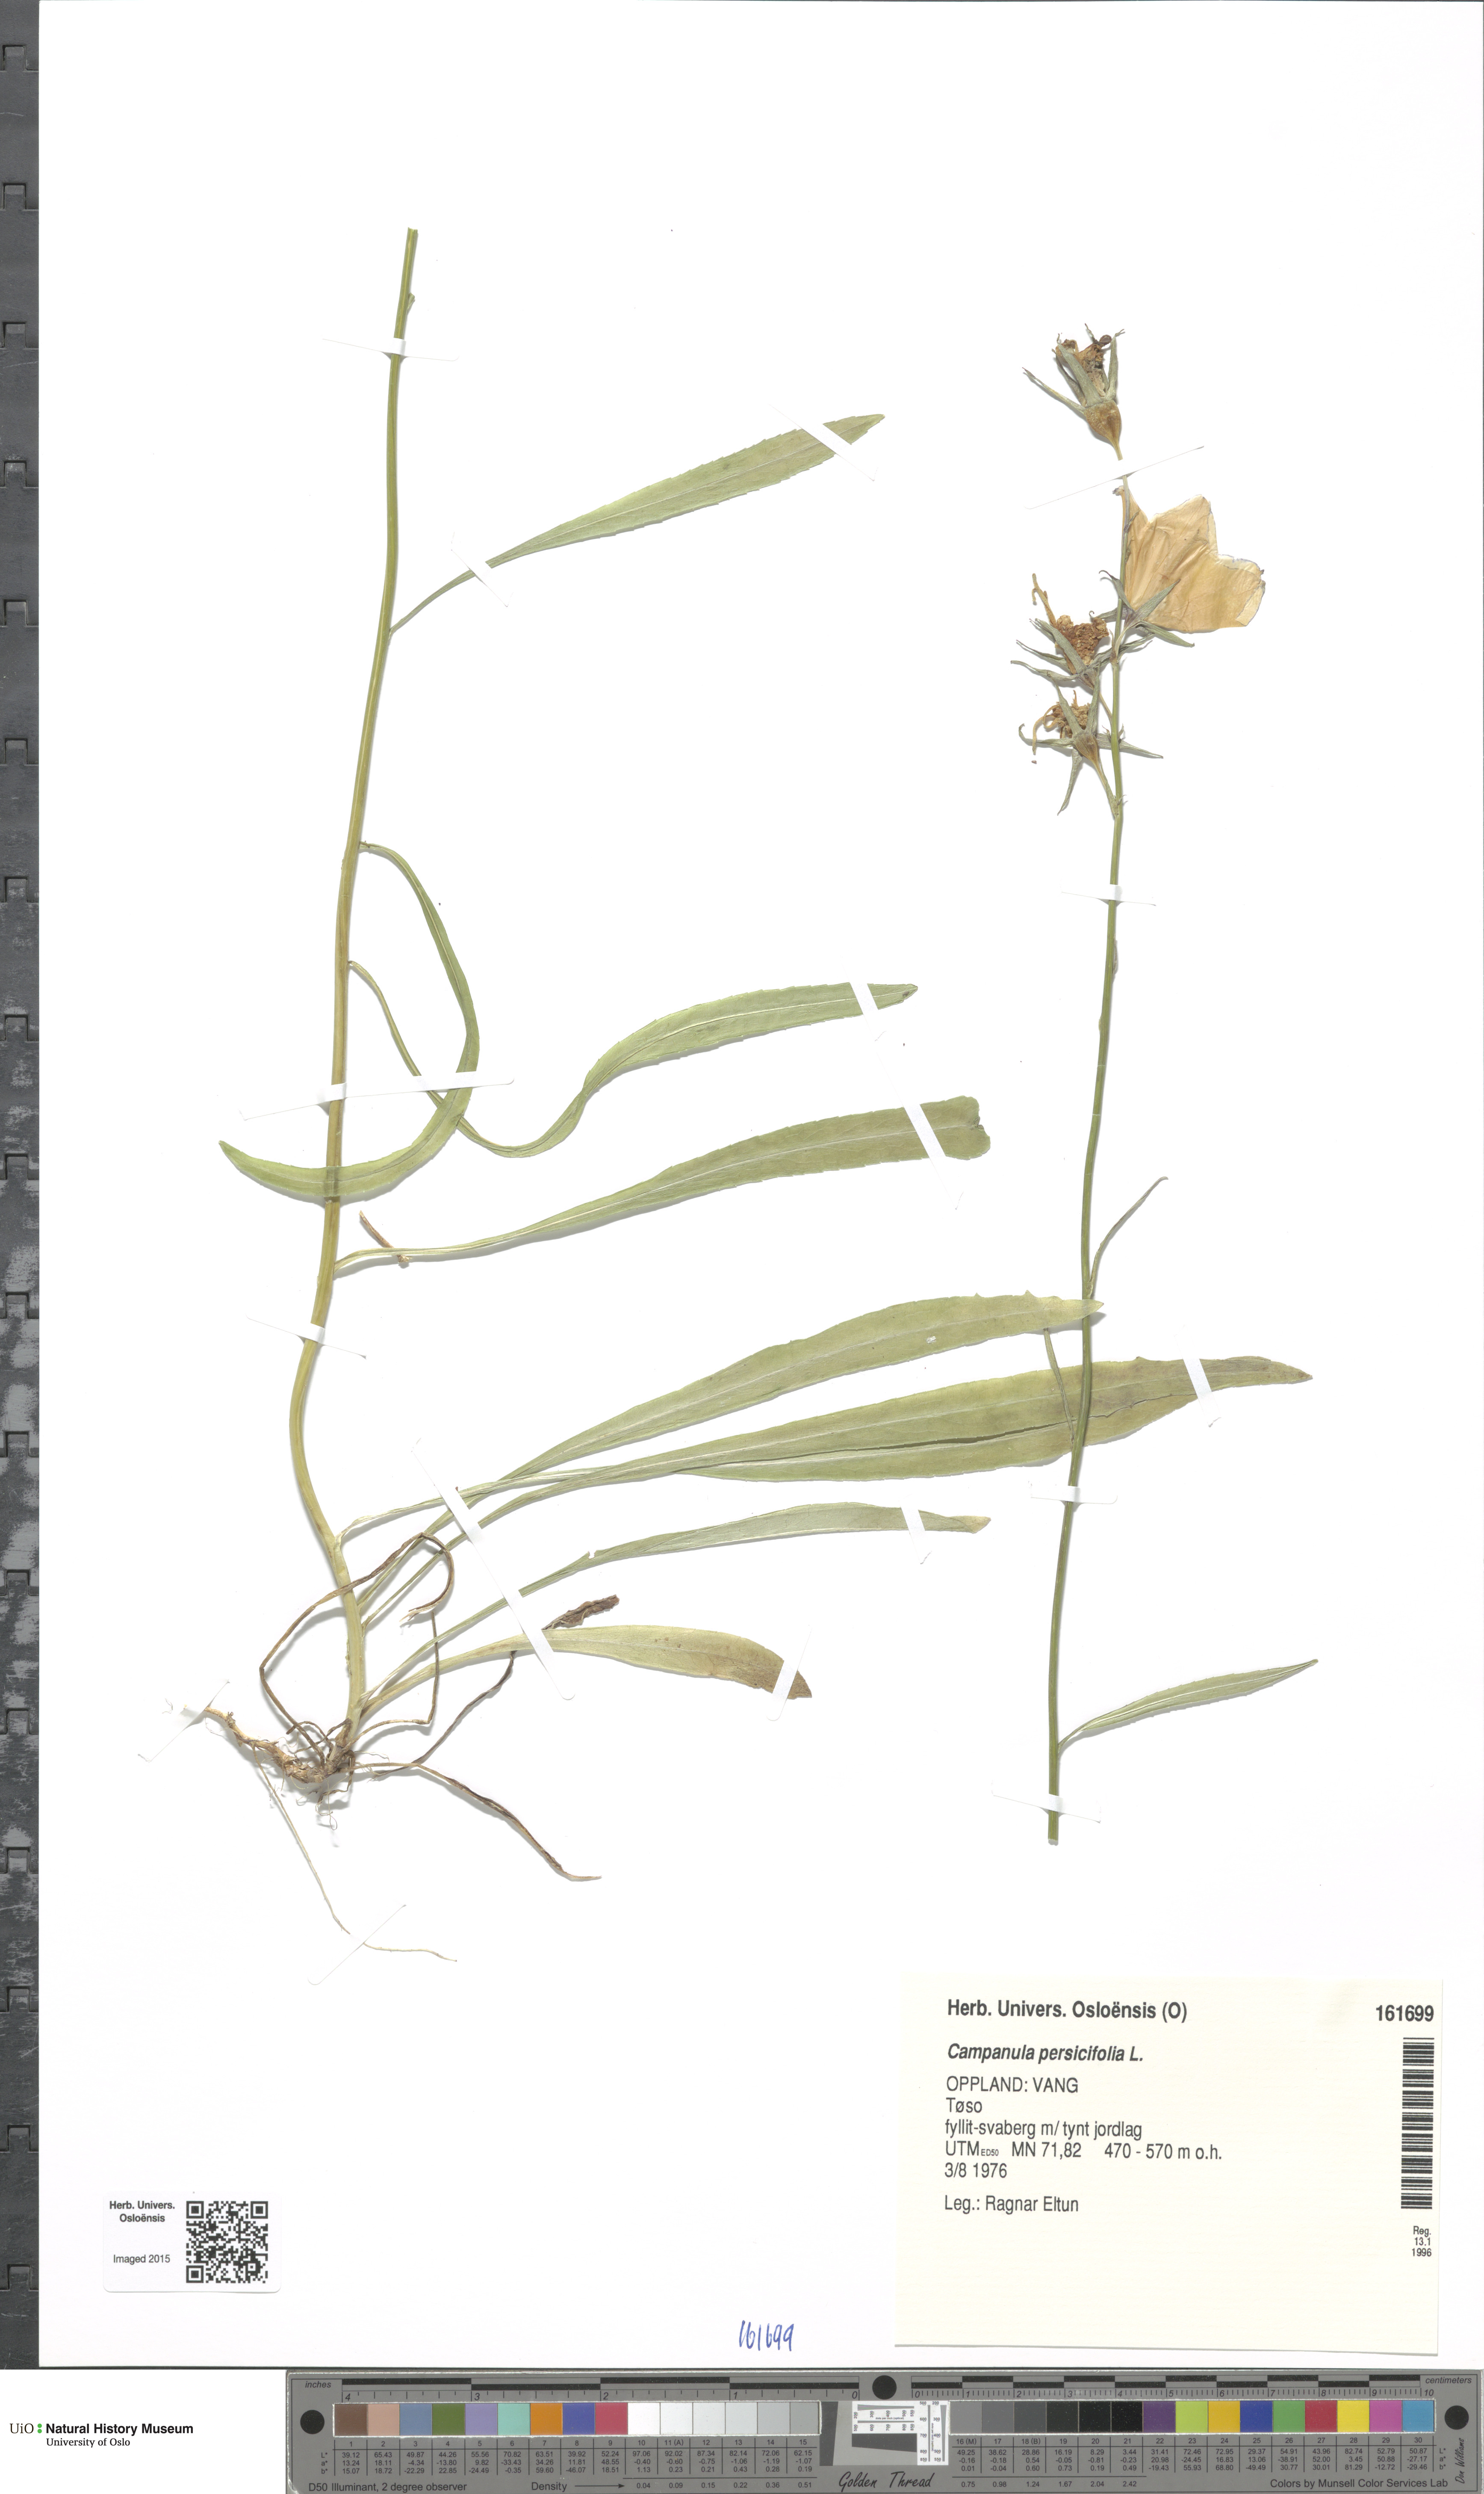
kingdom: Plantae
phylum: Tracheophyta
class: Magnoliopsida
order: Asterales
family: Campanulaceae
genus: Campanula
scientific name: Campanula persicifolia
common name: Peach-leaved bellflower
